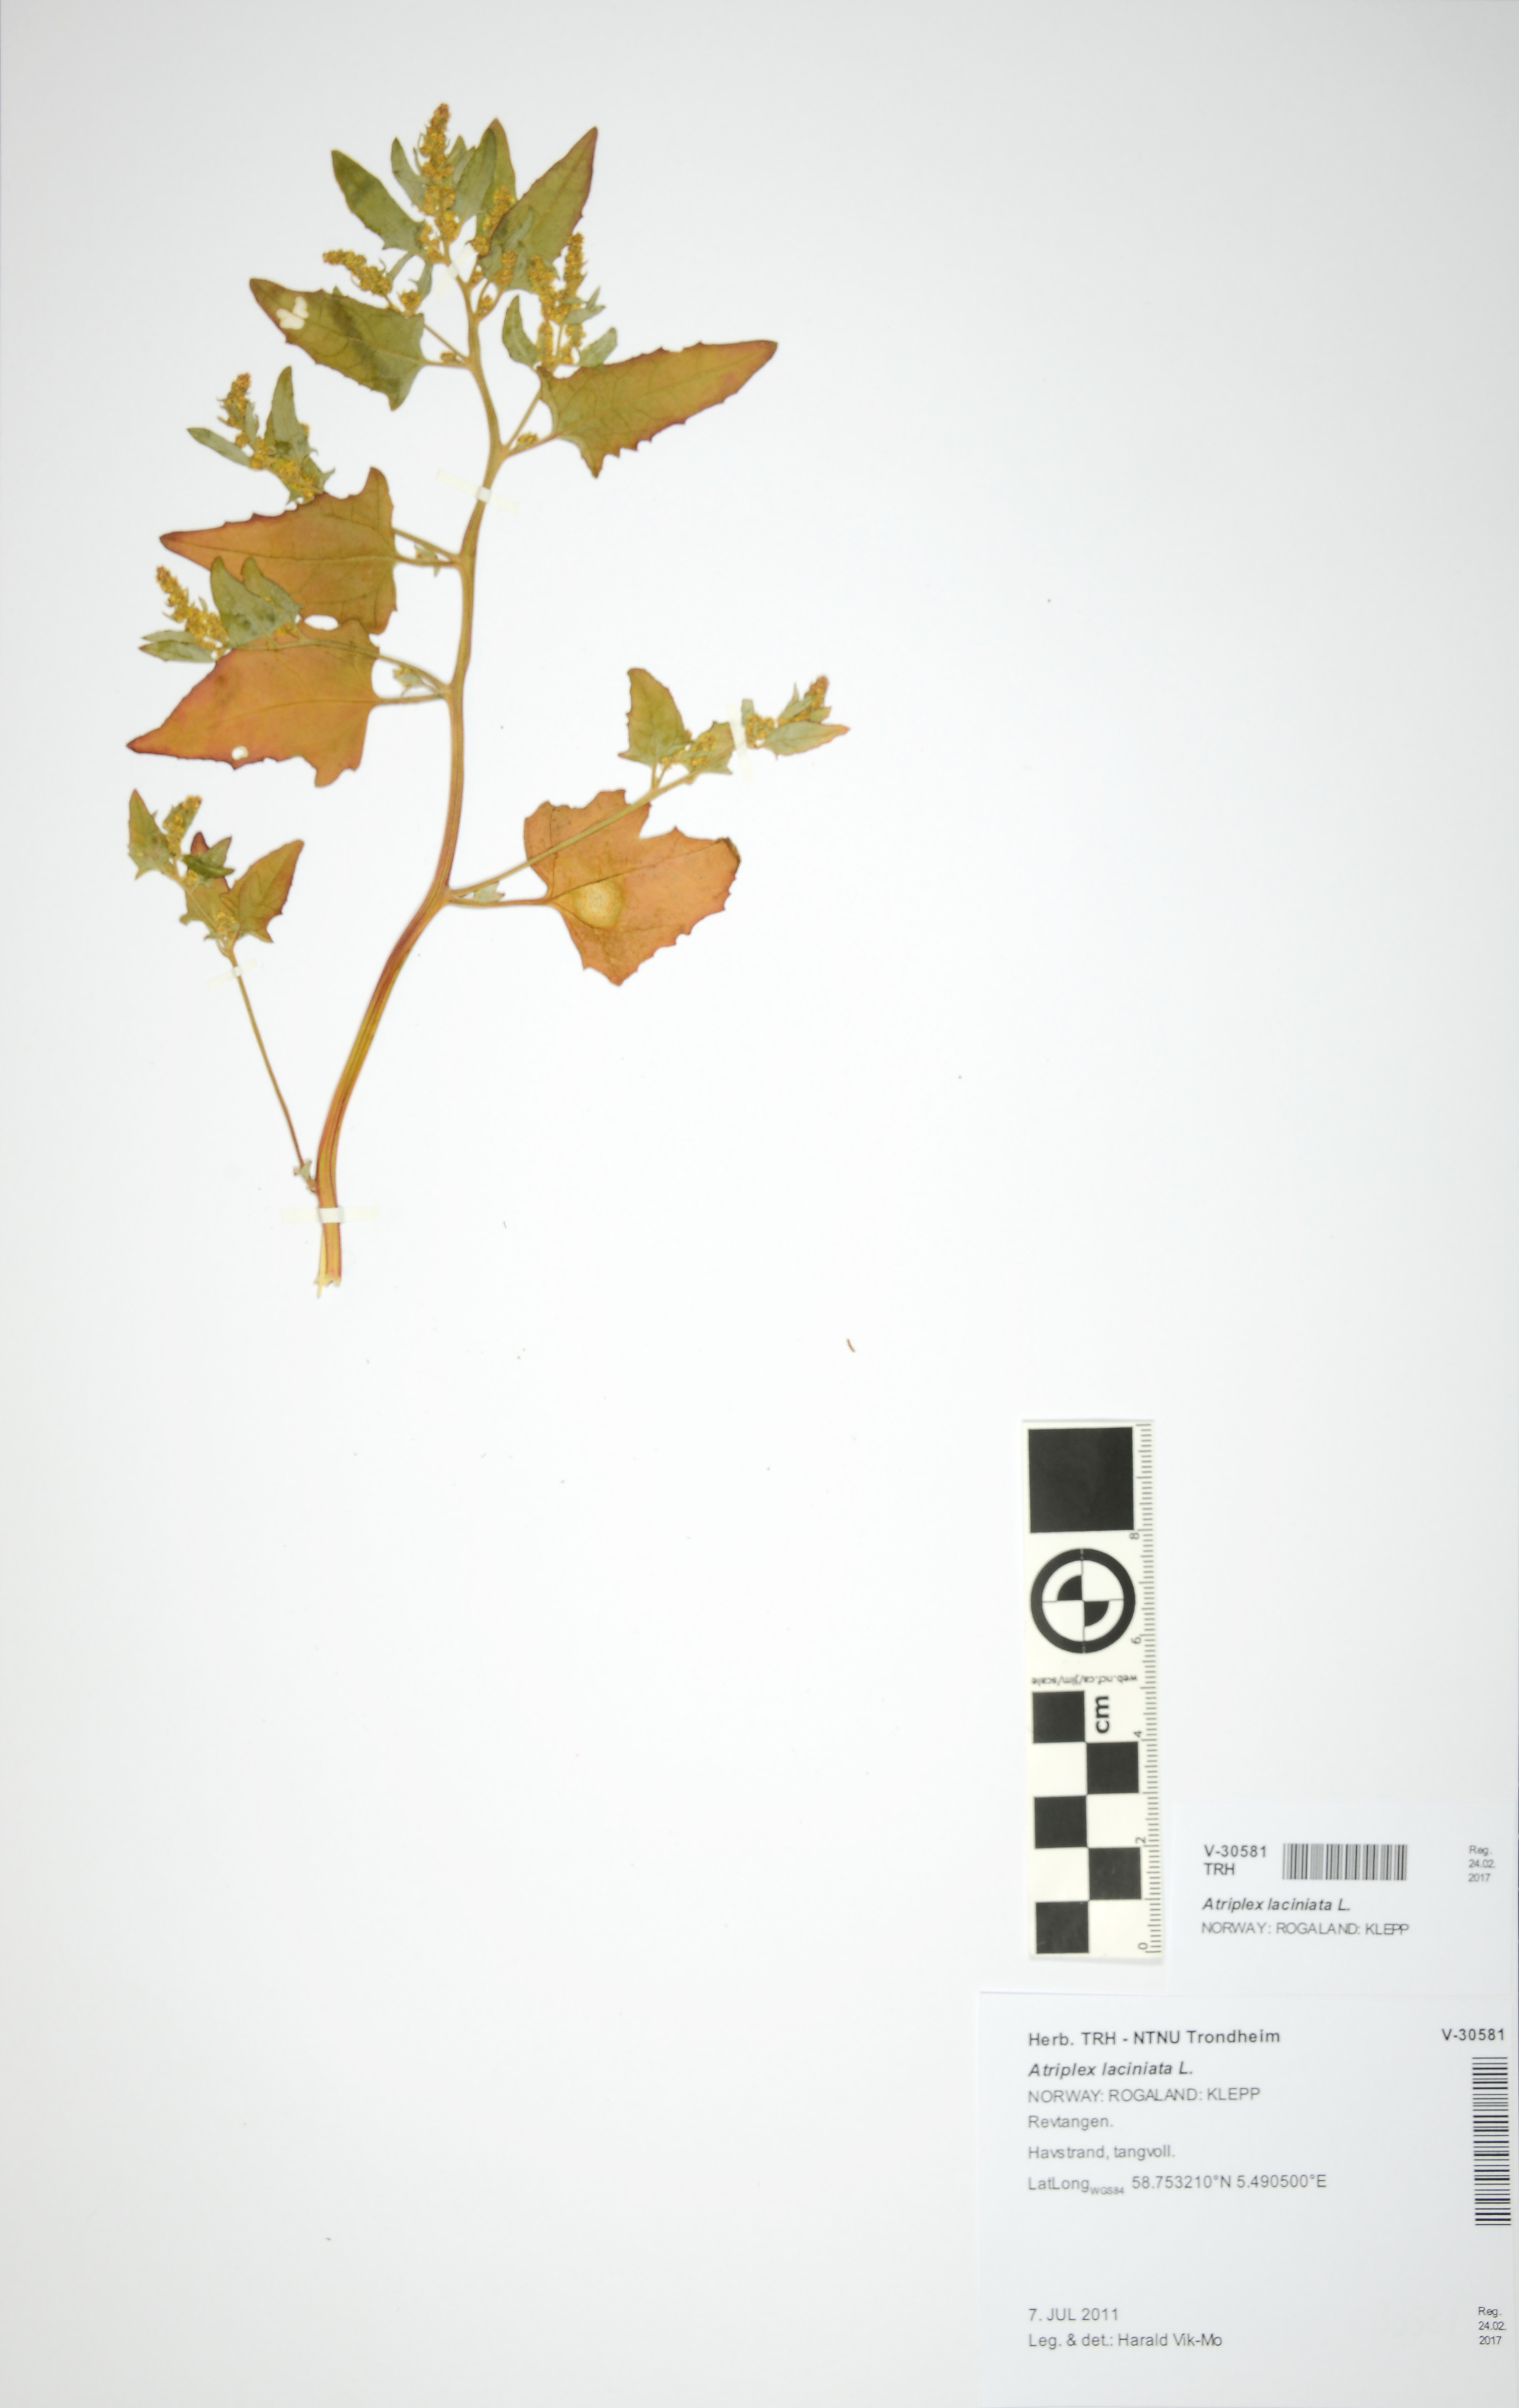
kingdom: Plantae
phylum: Tracheophyta
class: Magnoliopsida
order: Caryophyllales
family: Amaranthaceae
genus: Atriplex
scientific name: Atriplex laciniata
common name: Frosted orache
